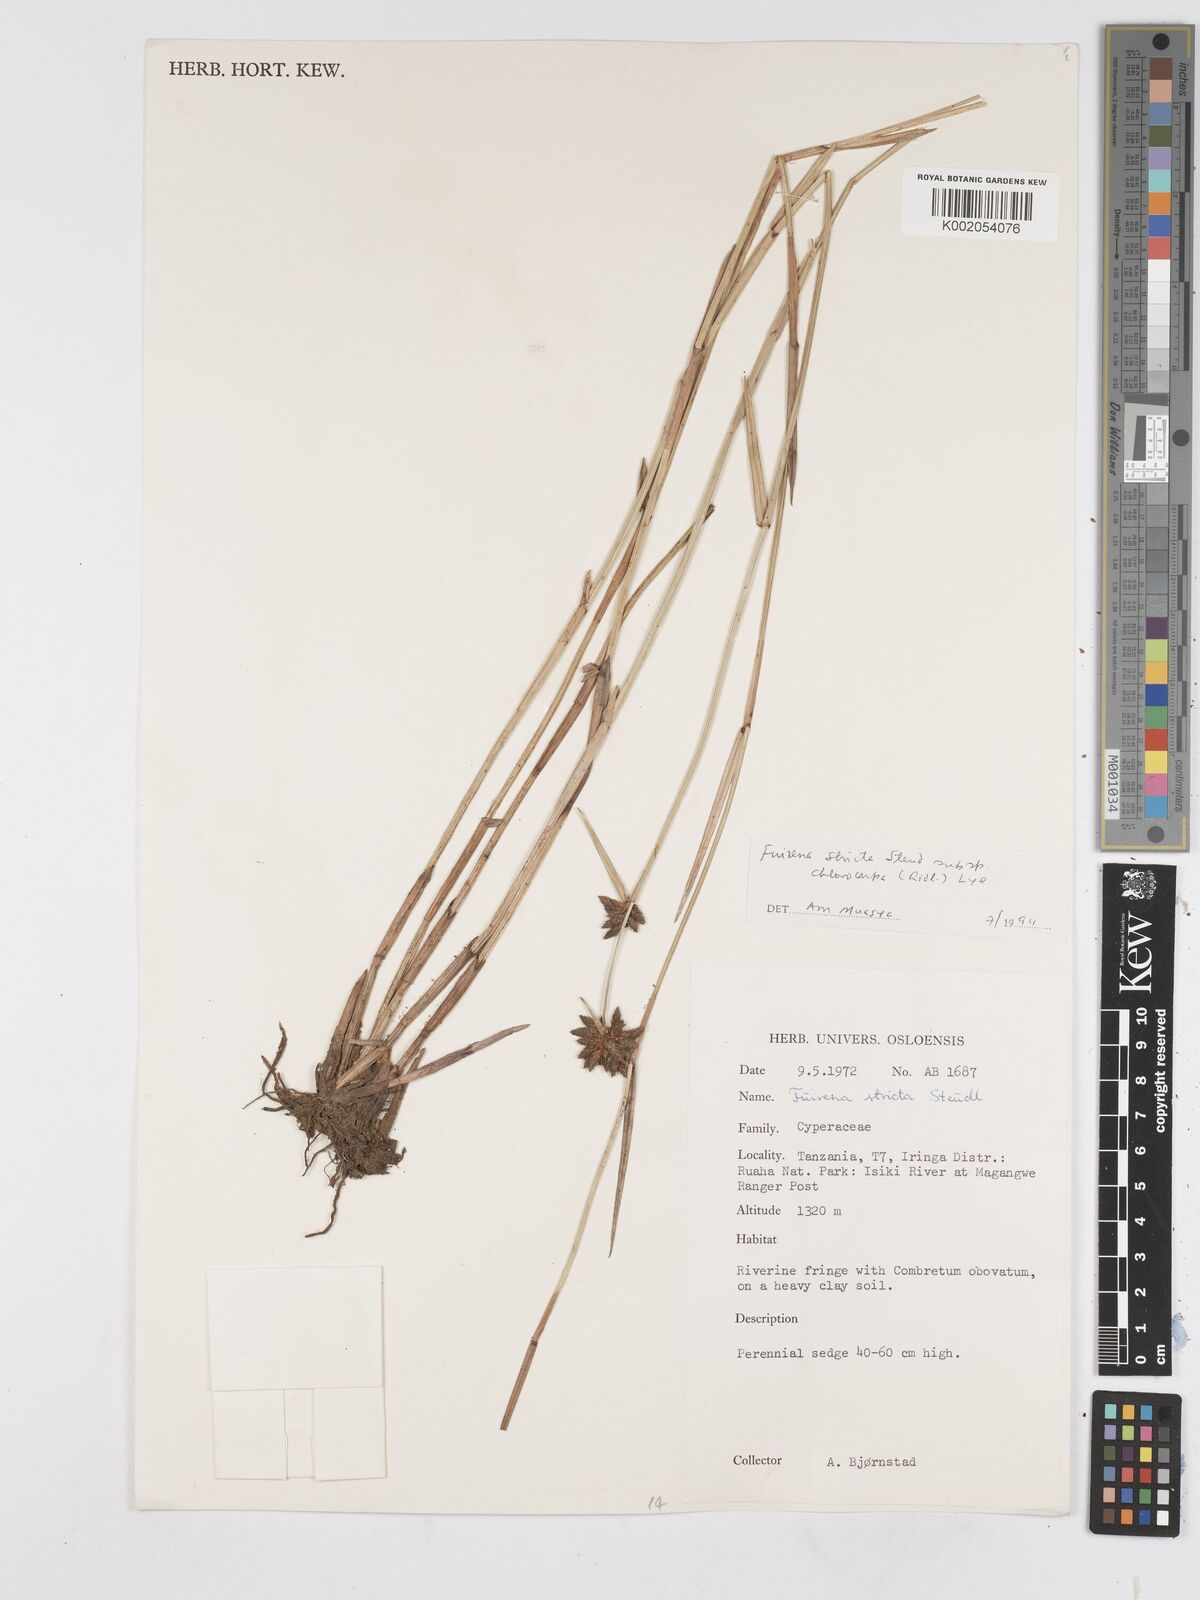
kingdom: Plantae
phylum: Tracheophyta
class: Liliopsida
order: Poales
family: Cyperaceae
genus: Fuirena
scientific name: Fuirena stricta
